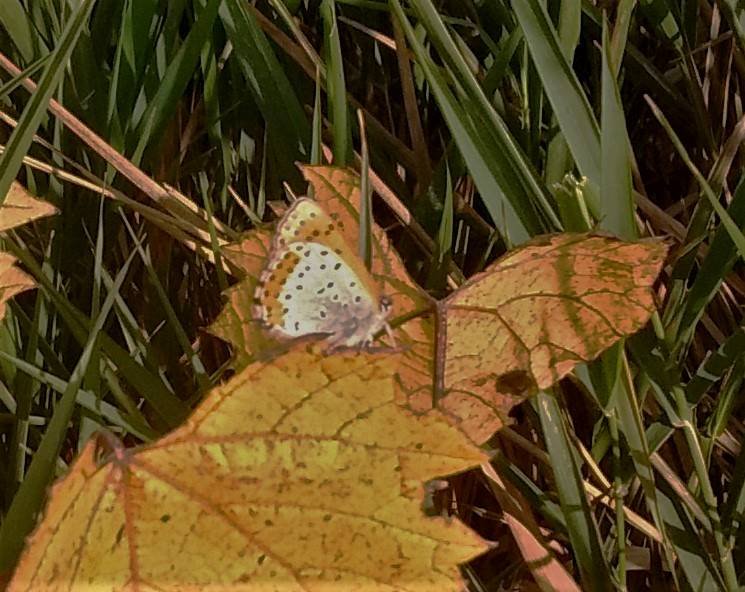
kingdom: Animalia
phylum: Arthropoda
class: Insecta
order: Lepidoptera
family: Sesiidae
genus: Sesia
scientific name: Sesia Lycaena hyllus
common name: Bronze Copper
